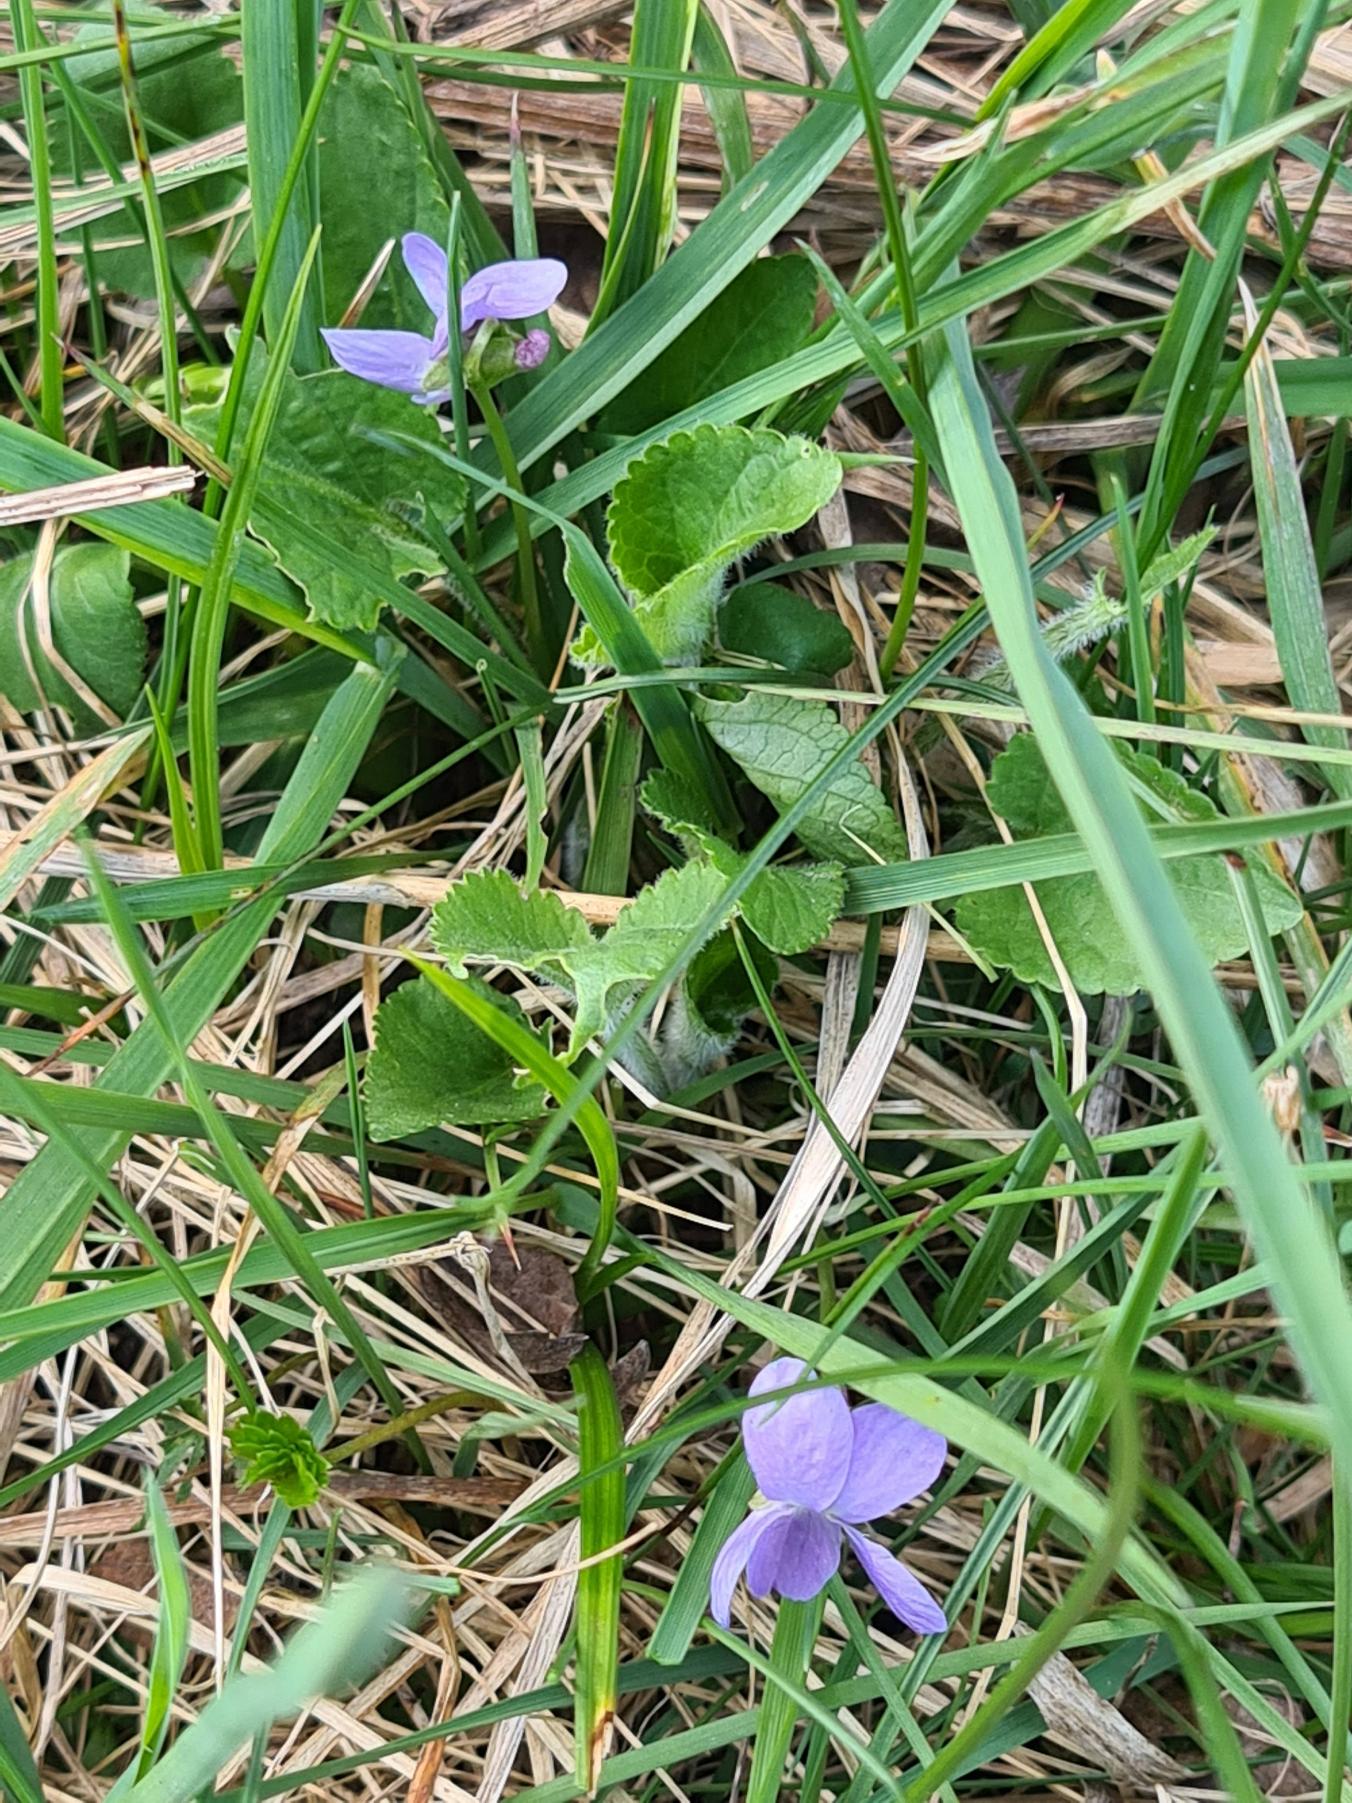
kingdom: Plantae
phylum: Tracheophyta
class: Magnoliopsida
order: Malpighiales
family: Violaceae
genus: Viola
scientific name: Viola hirta
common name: Håret viol
